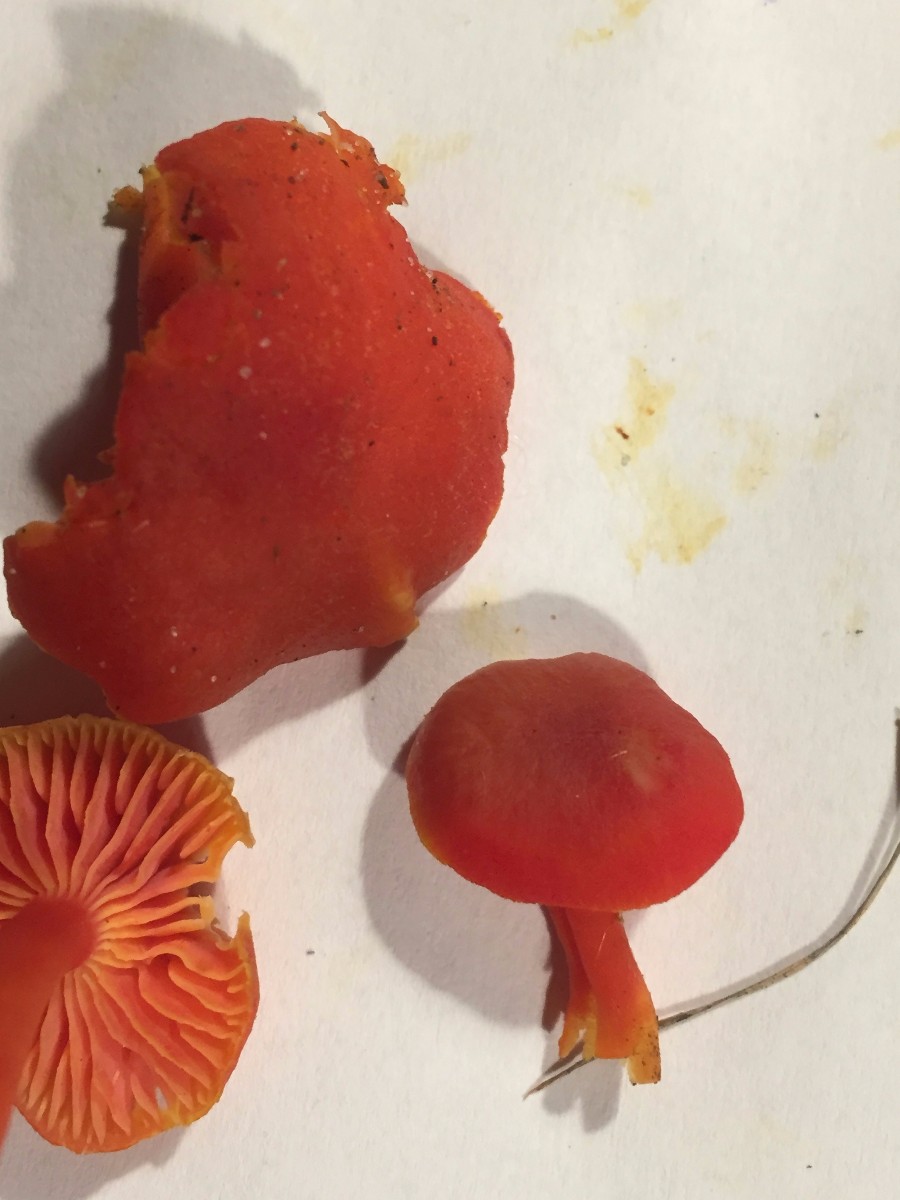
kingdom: Fungi
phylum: Basidiomycota
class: Agaricomycetes
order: Agaricales
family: Hygrophoraceae
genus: Hygrocybe
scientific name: Hygrocybe miniata
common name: mønje-vokshat
